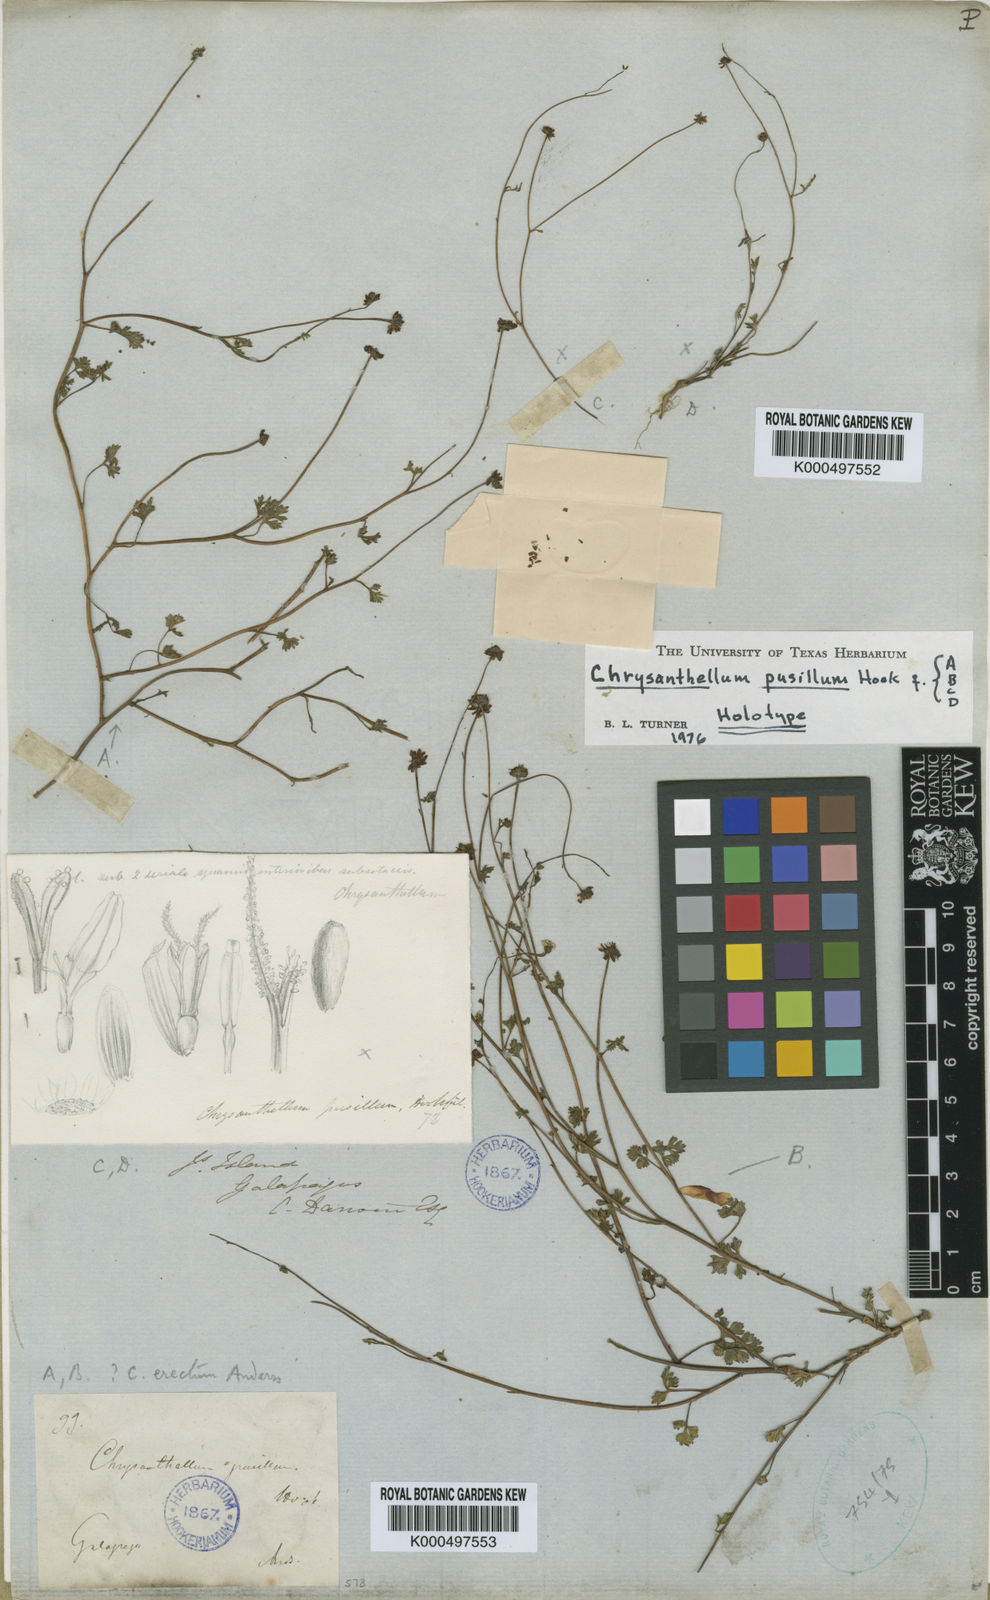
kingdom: Plantae
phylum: Tracheophyta
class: Magnoliopsida
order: Asterales
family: Asteraceae
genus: Chrysanthellum
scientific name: Chrysanthellum pusillum
